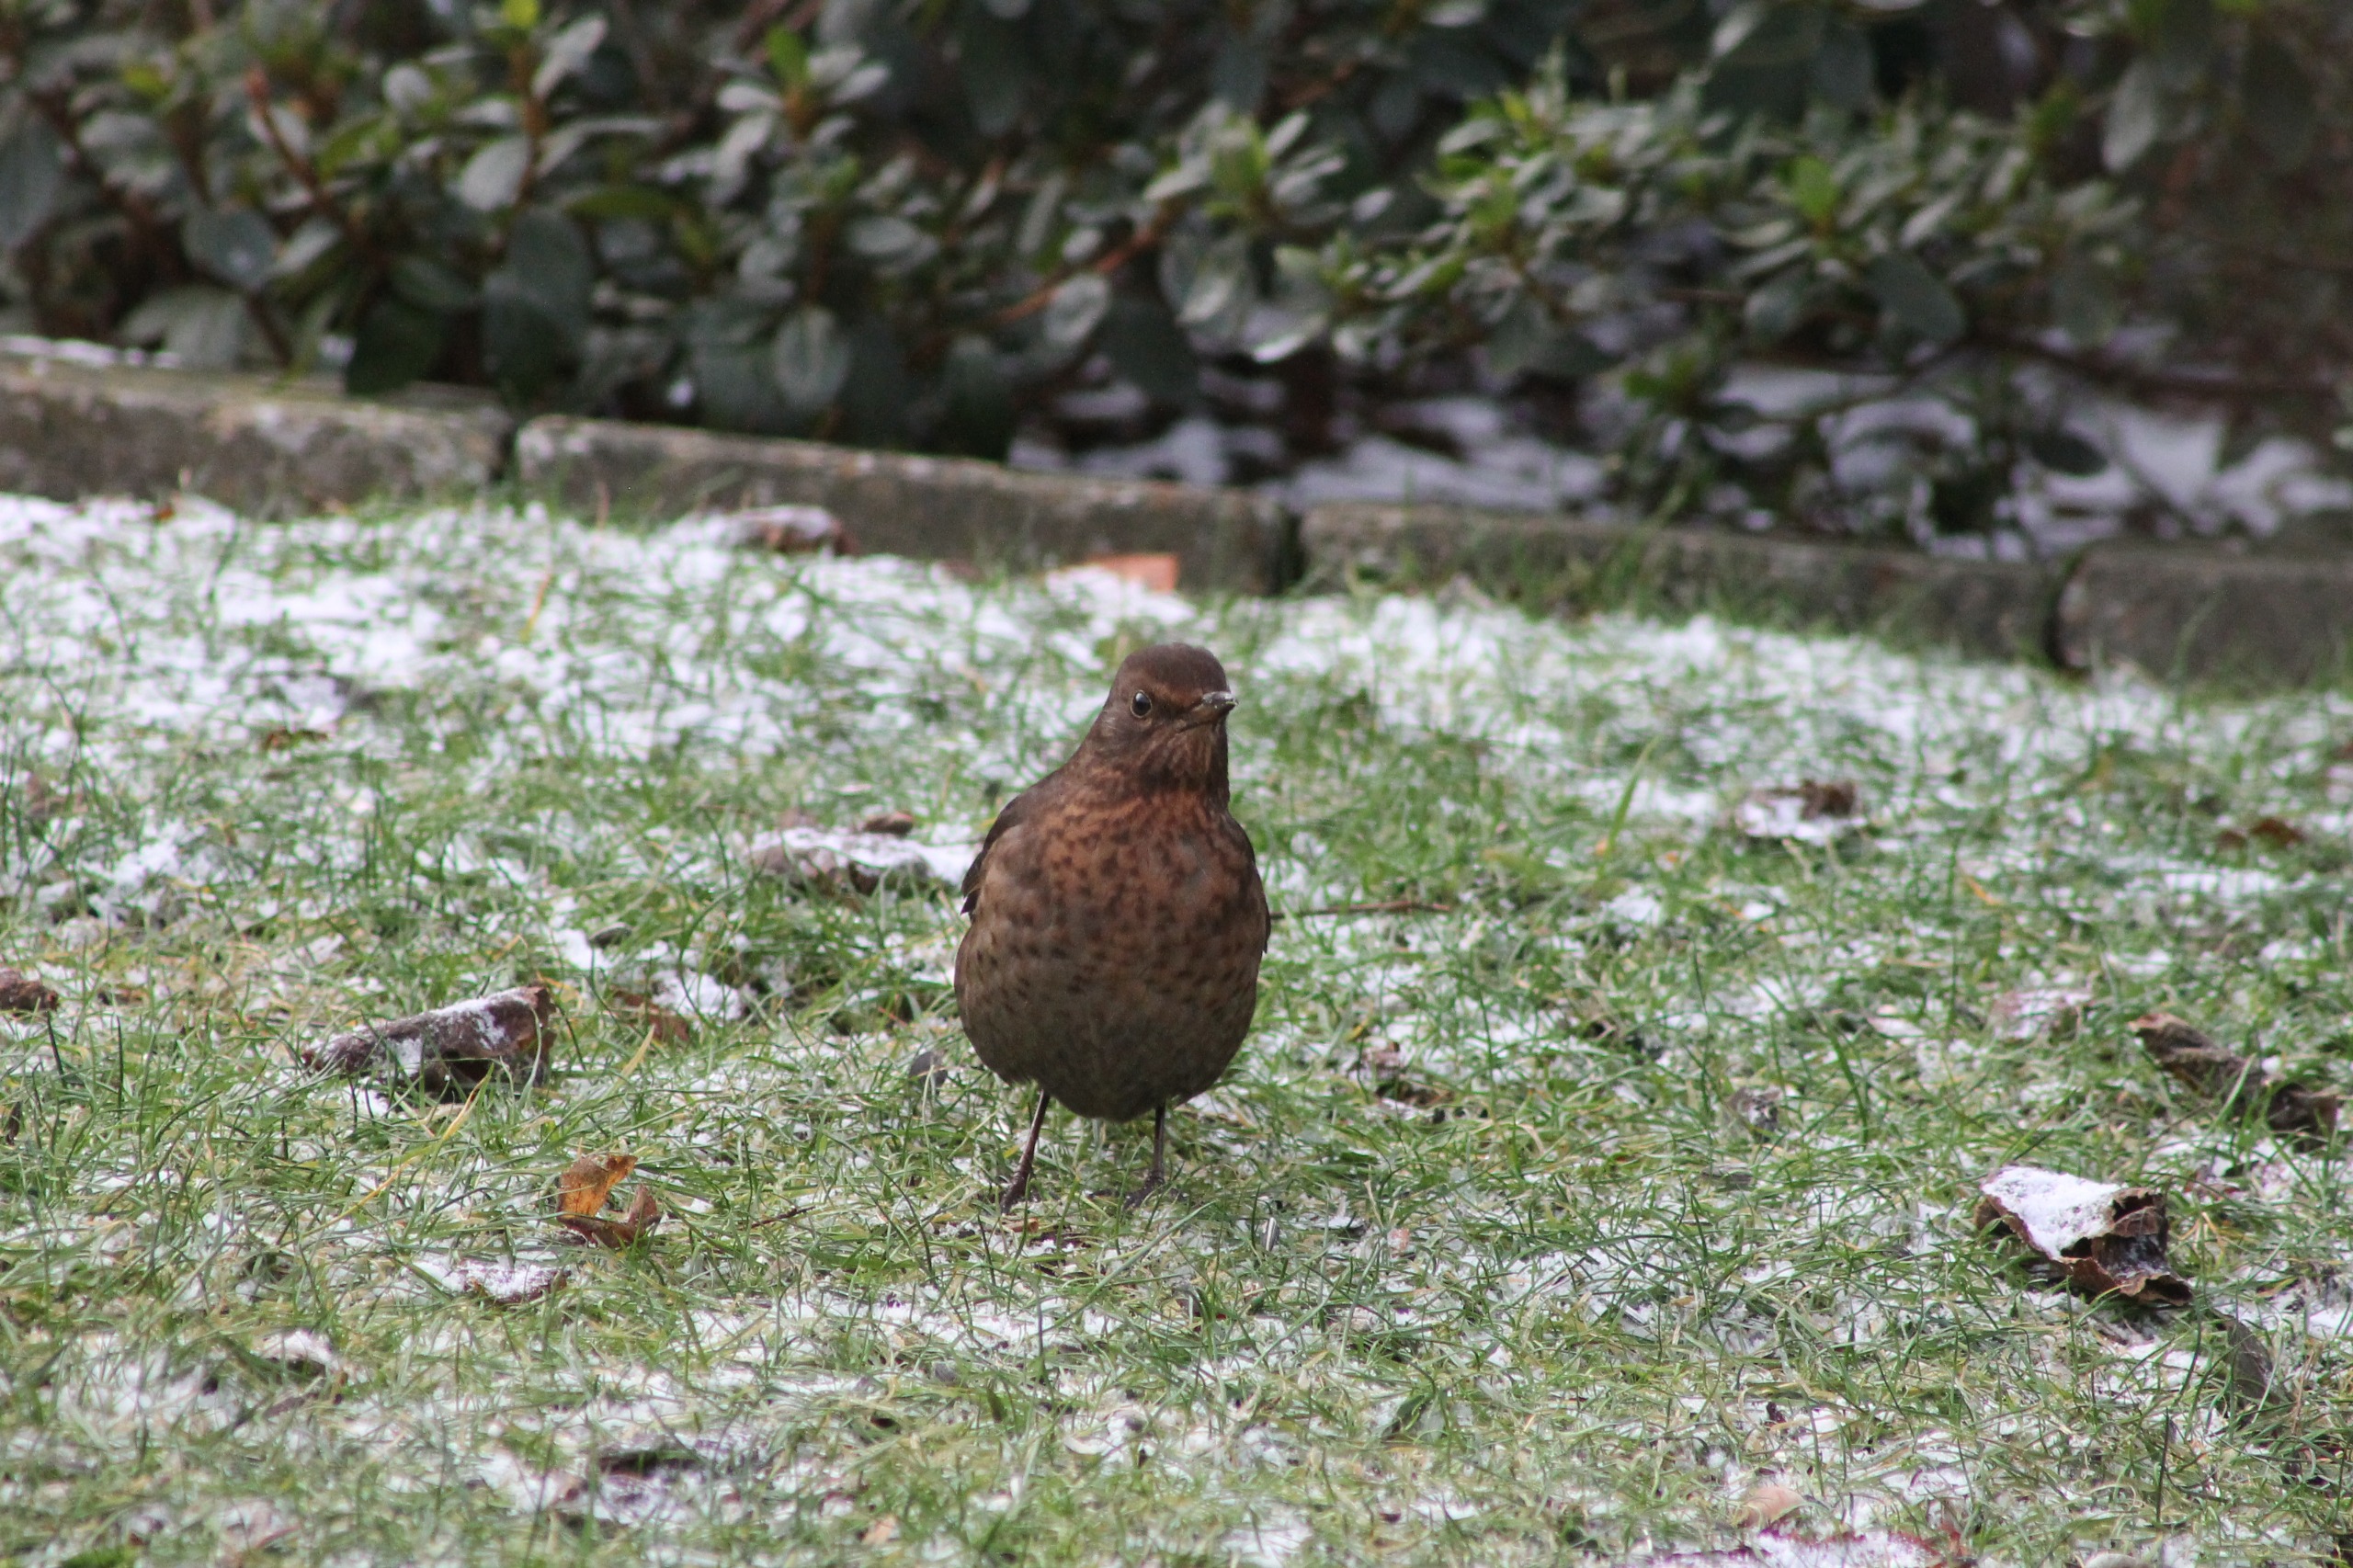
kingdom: Animalia
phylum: Chordata
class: Aves
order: Passeriformes
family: Turdidae
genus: Turdus
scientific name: Turdus merula
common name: Solsort
